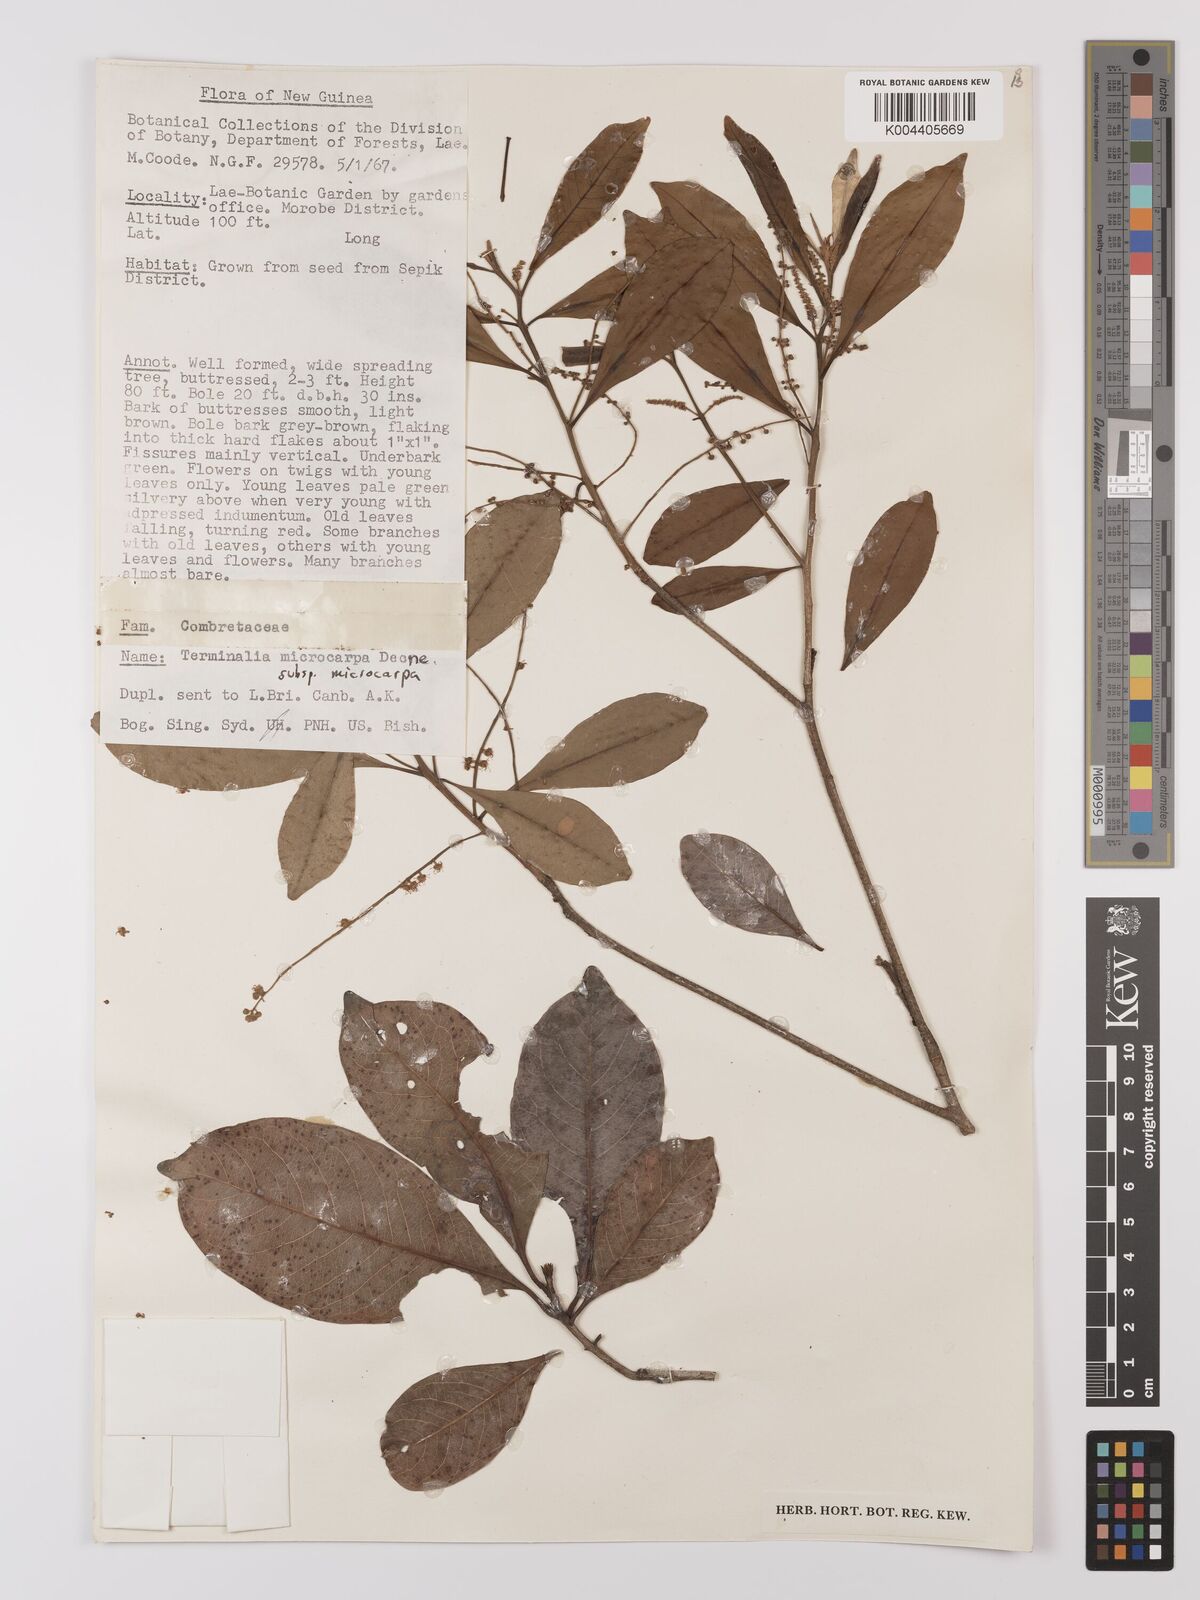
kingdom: Plantae
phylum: Tracheophyta
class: Magnoliopsida
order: Myrtales
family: Combretaceae
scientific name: Combretaceae
